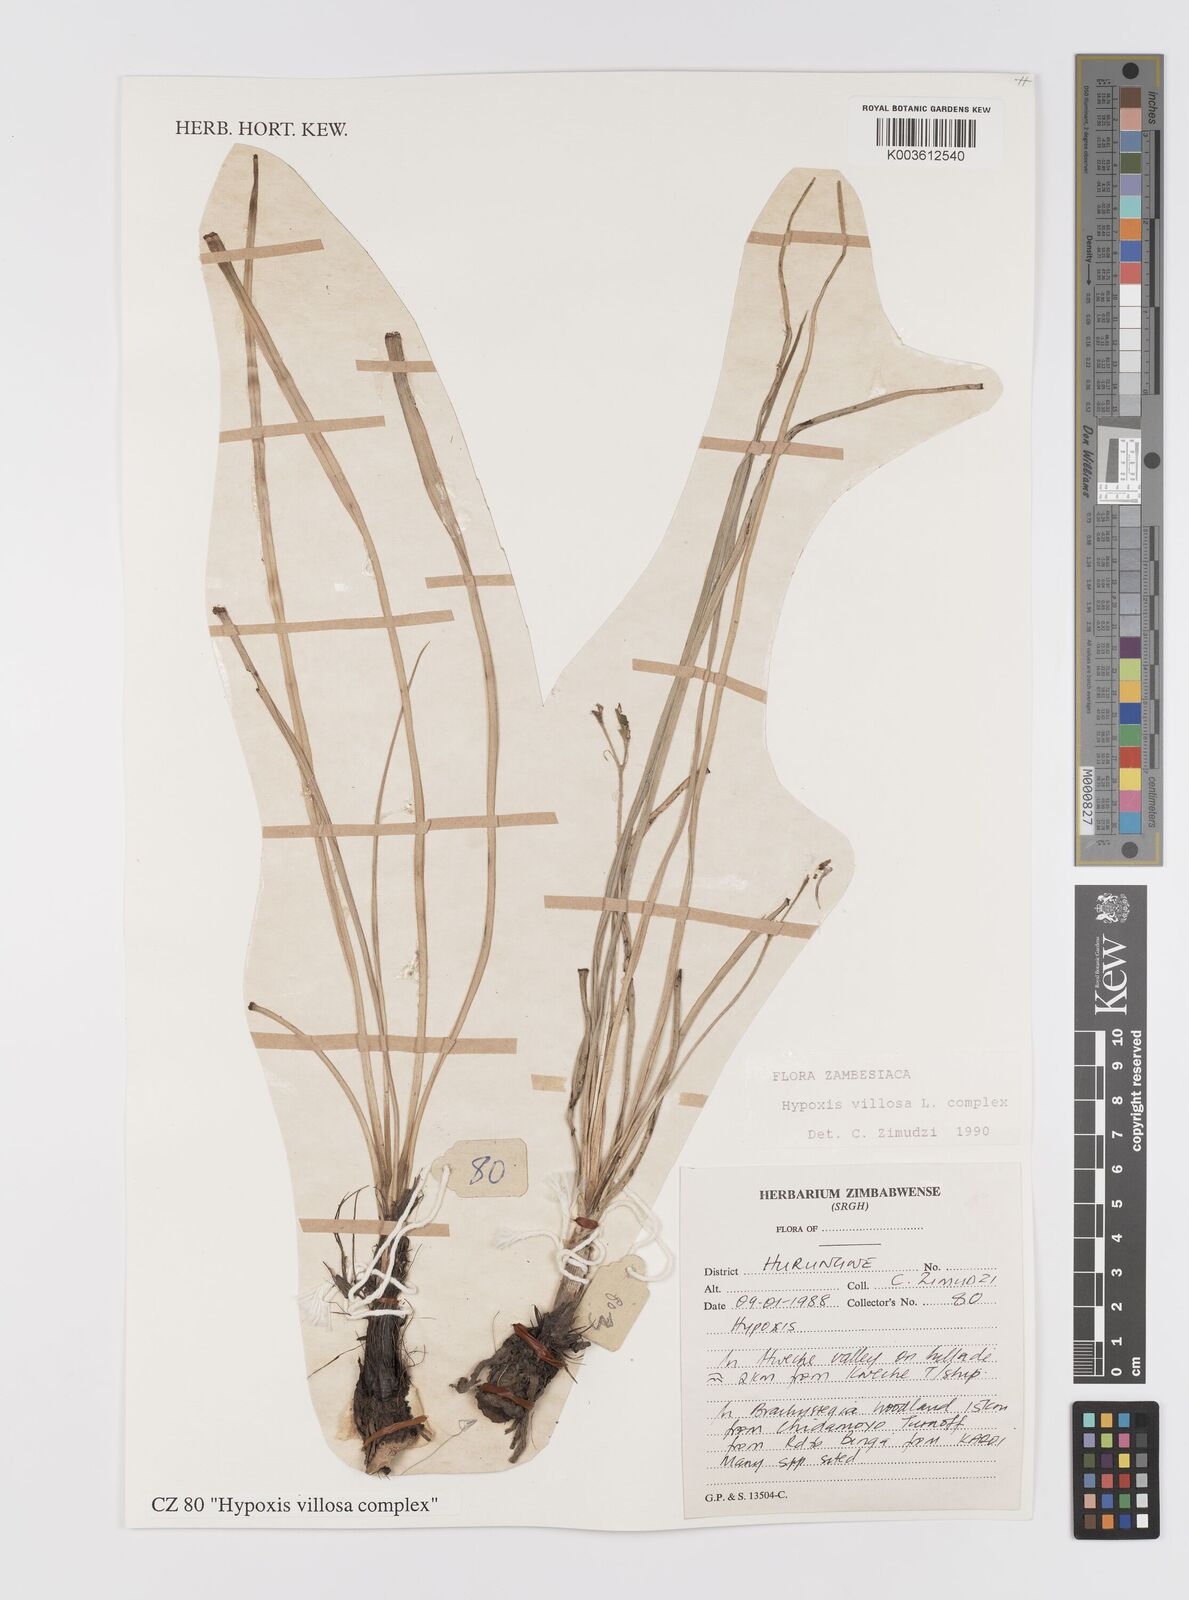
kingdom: Plantae
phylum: Tracheophyta
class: Liliopsida
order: Asparagales
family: Hypoxidaceae
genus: Hypoxis
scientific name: Hypoxis villosa
